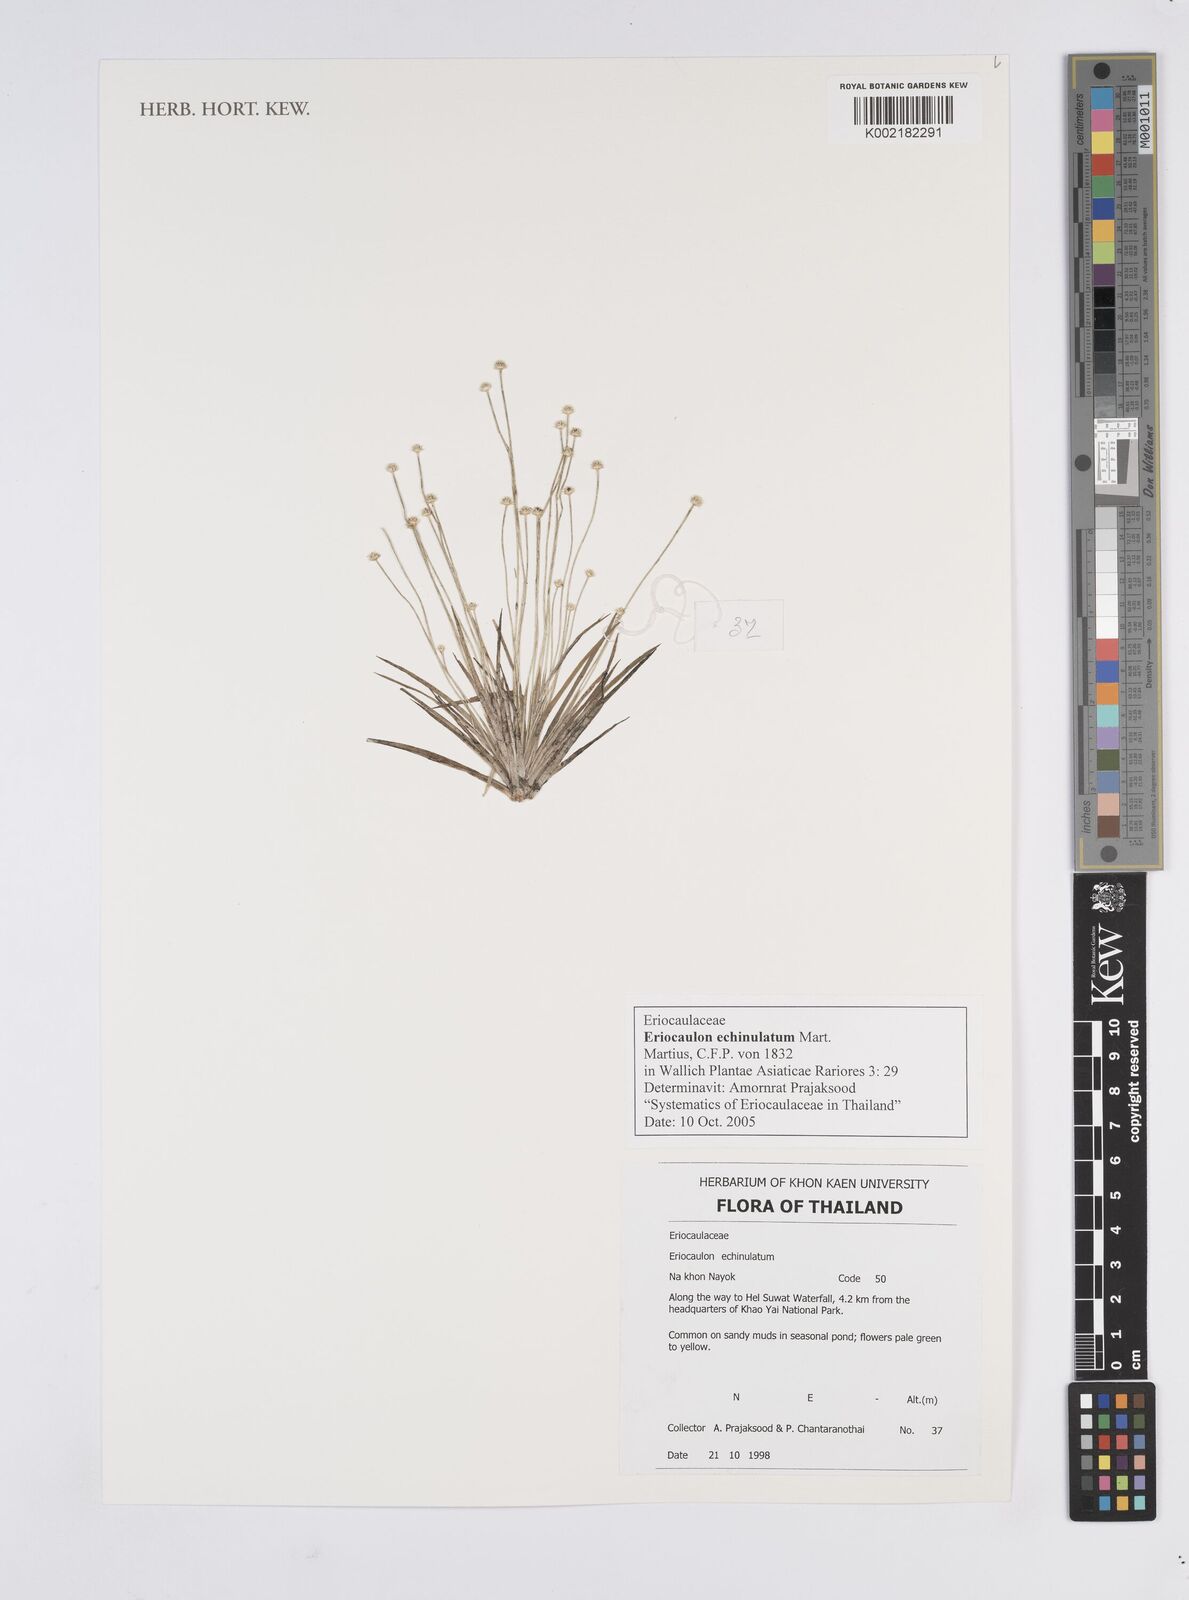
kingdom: Plantae
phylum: Tracheophyta
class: Liliopsida
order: Poales
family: Eriocaulaceae
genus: Eriocaulon
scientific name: Eriocaulon echinulatum
